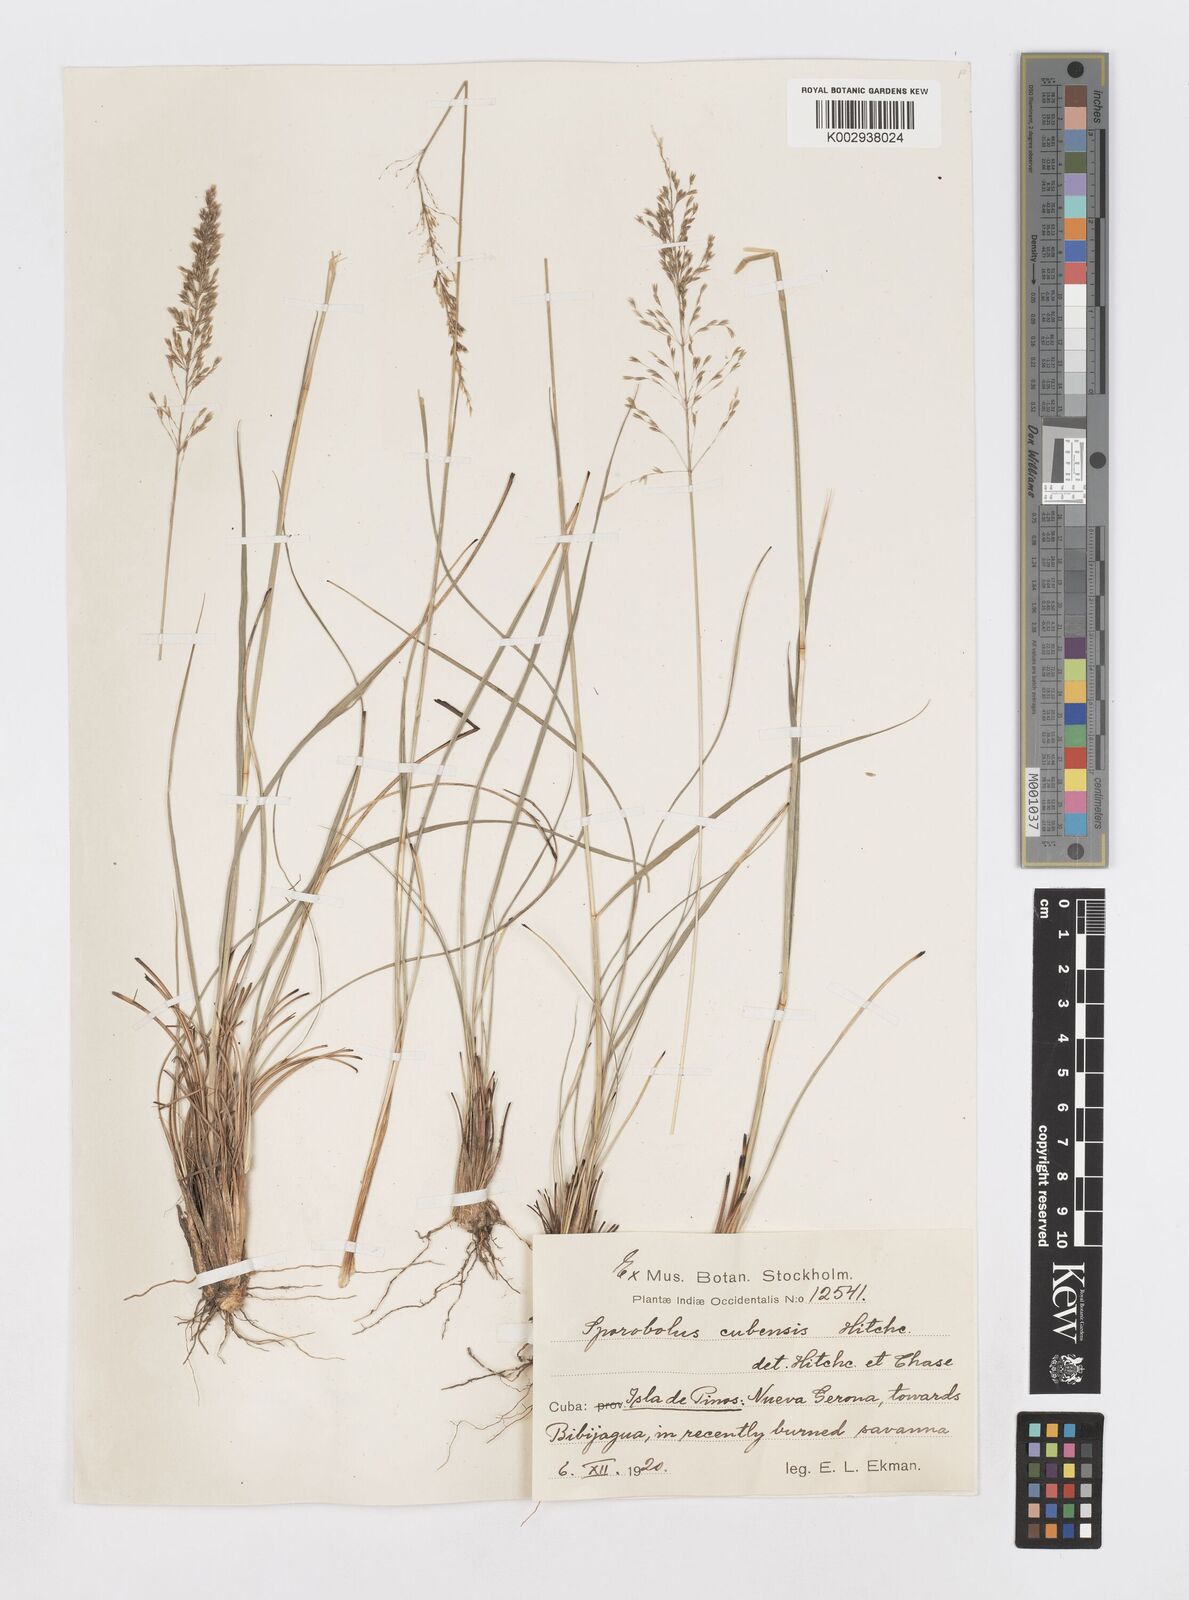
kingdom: Plantae
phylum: Tracheophyta
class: Liliopsida
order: Poales
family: Poaceae
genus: Sporobolus
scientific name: Sporobolus cubensis
